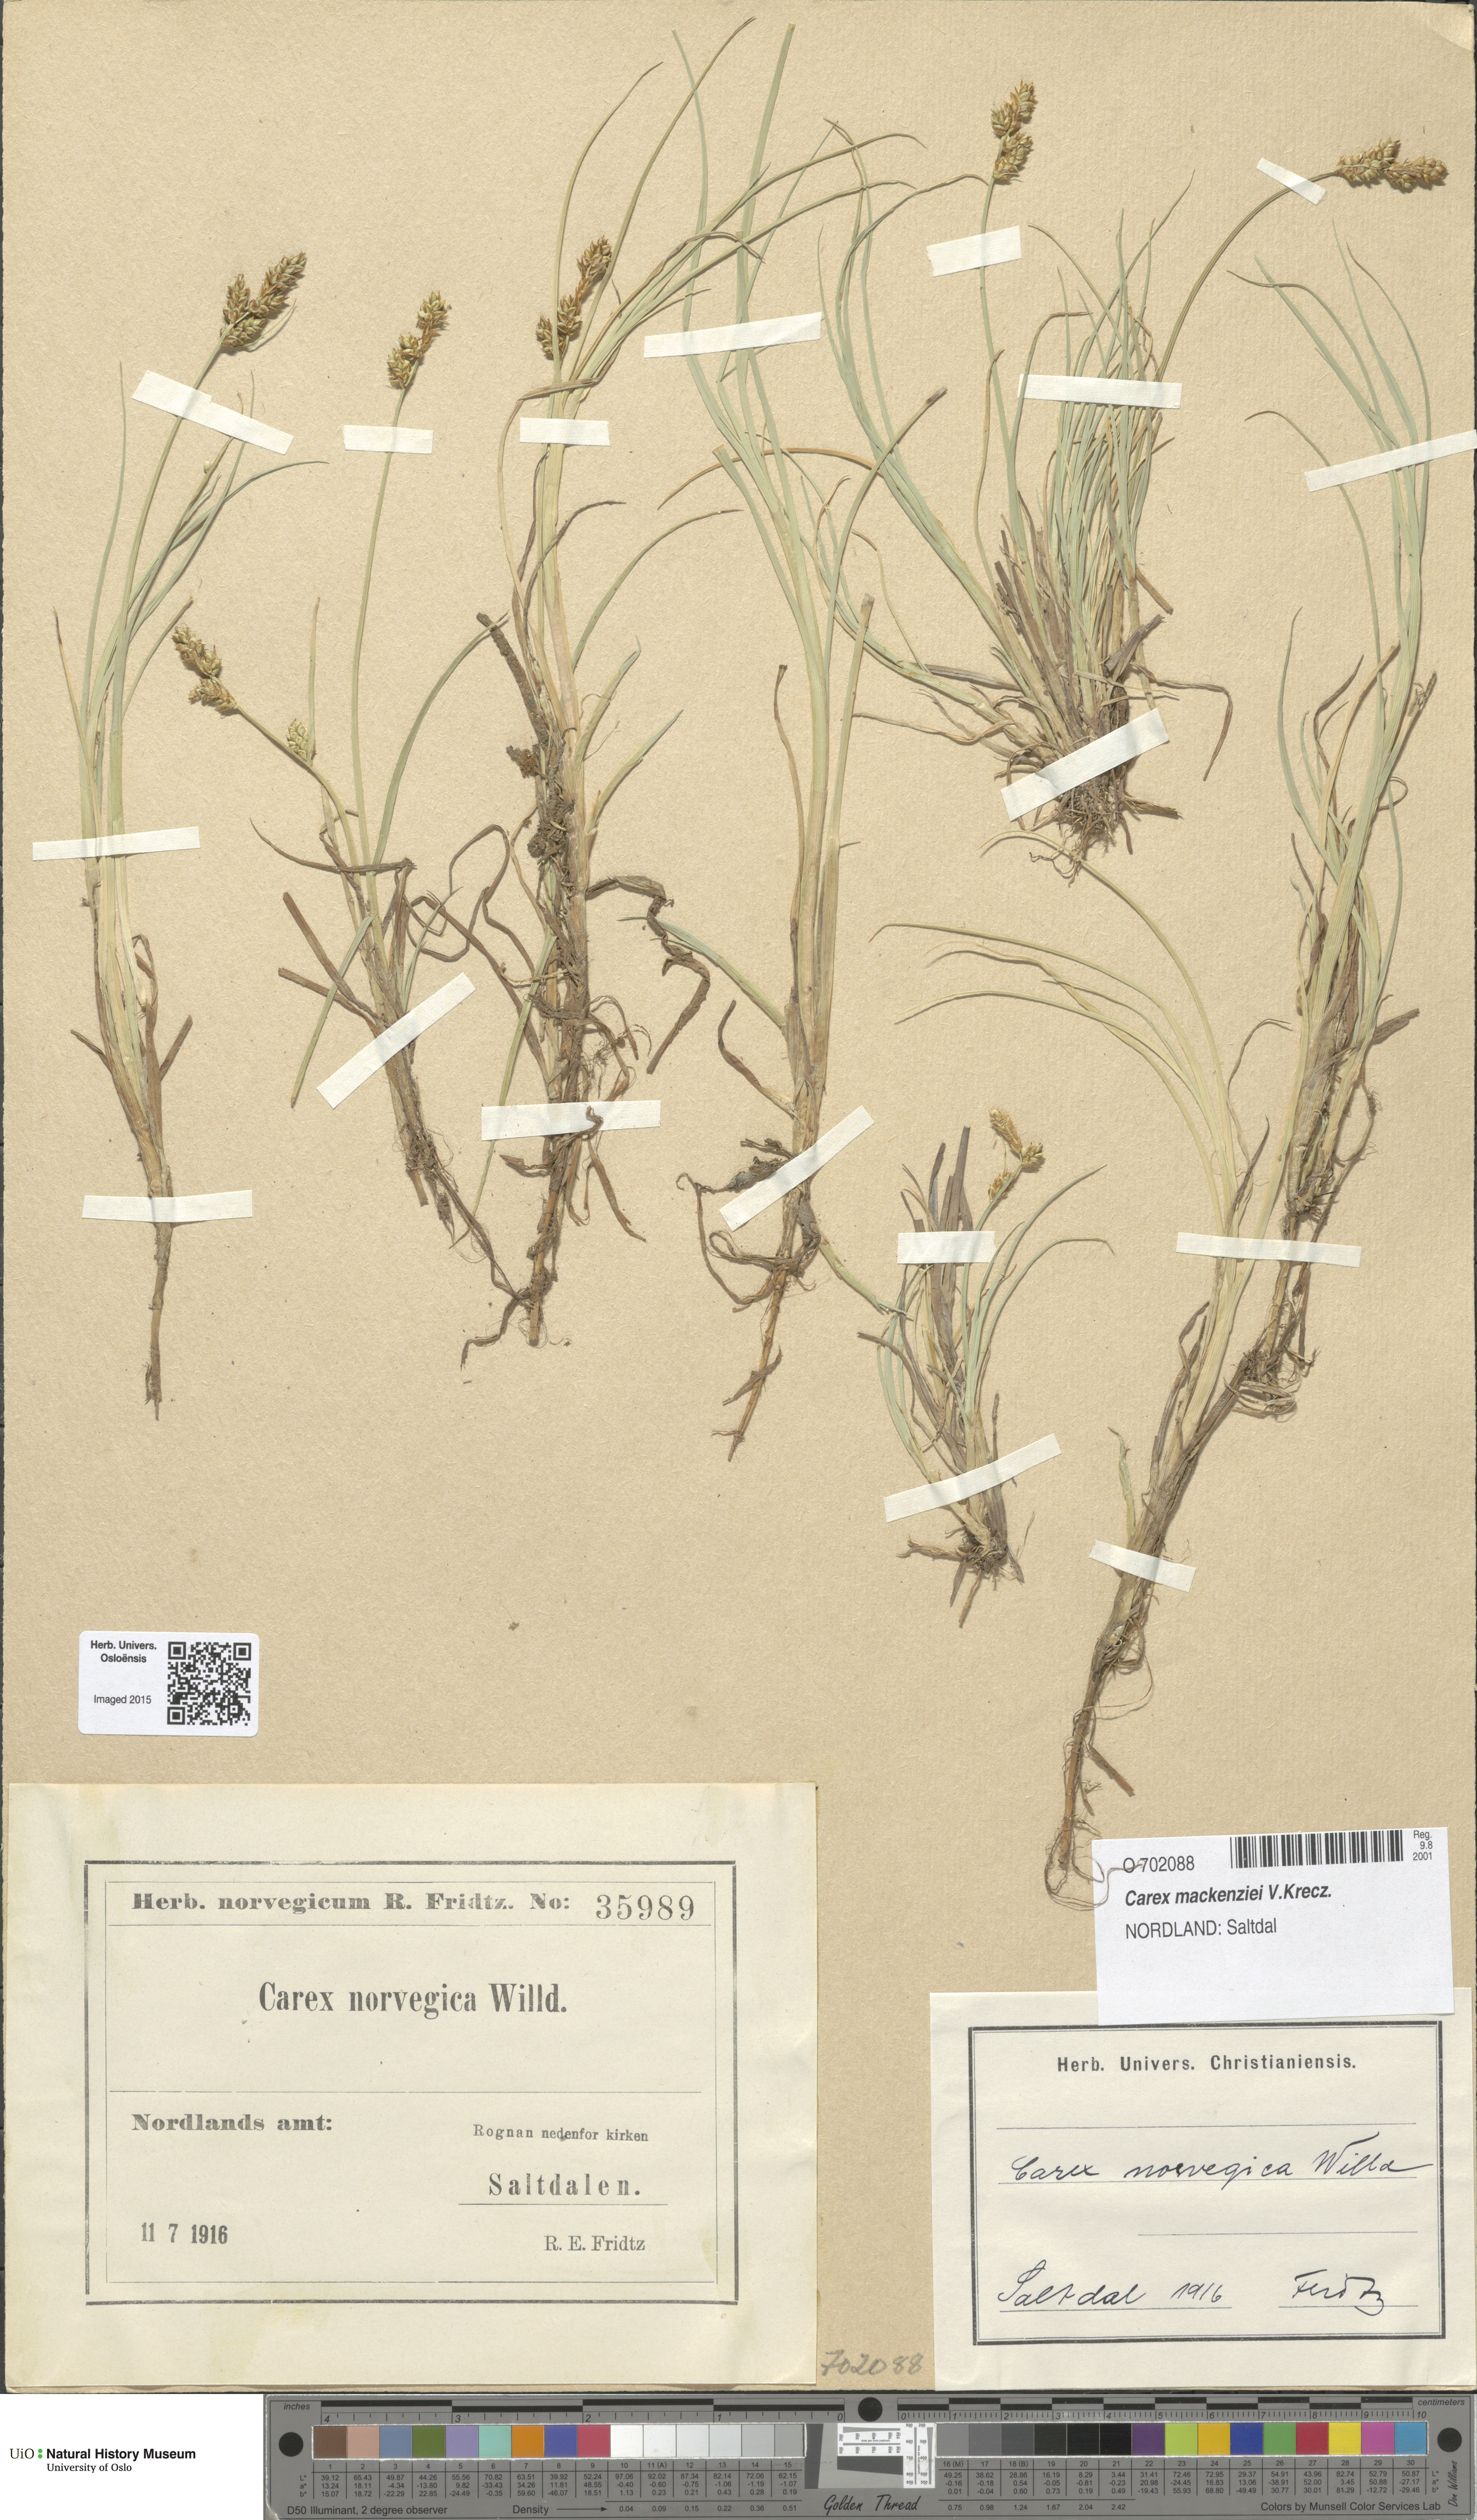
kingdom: Plantae
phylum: Tracheophyta
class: Liliopsida
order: Poales
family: Cyperaceae
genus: Carex
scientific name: Carex mackenziei
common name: Mackenzie's sedge
